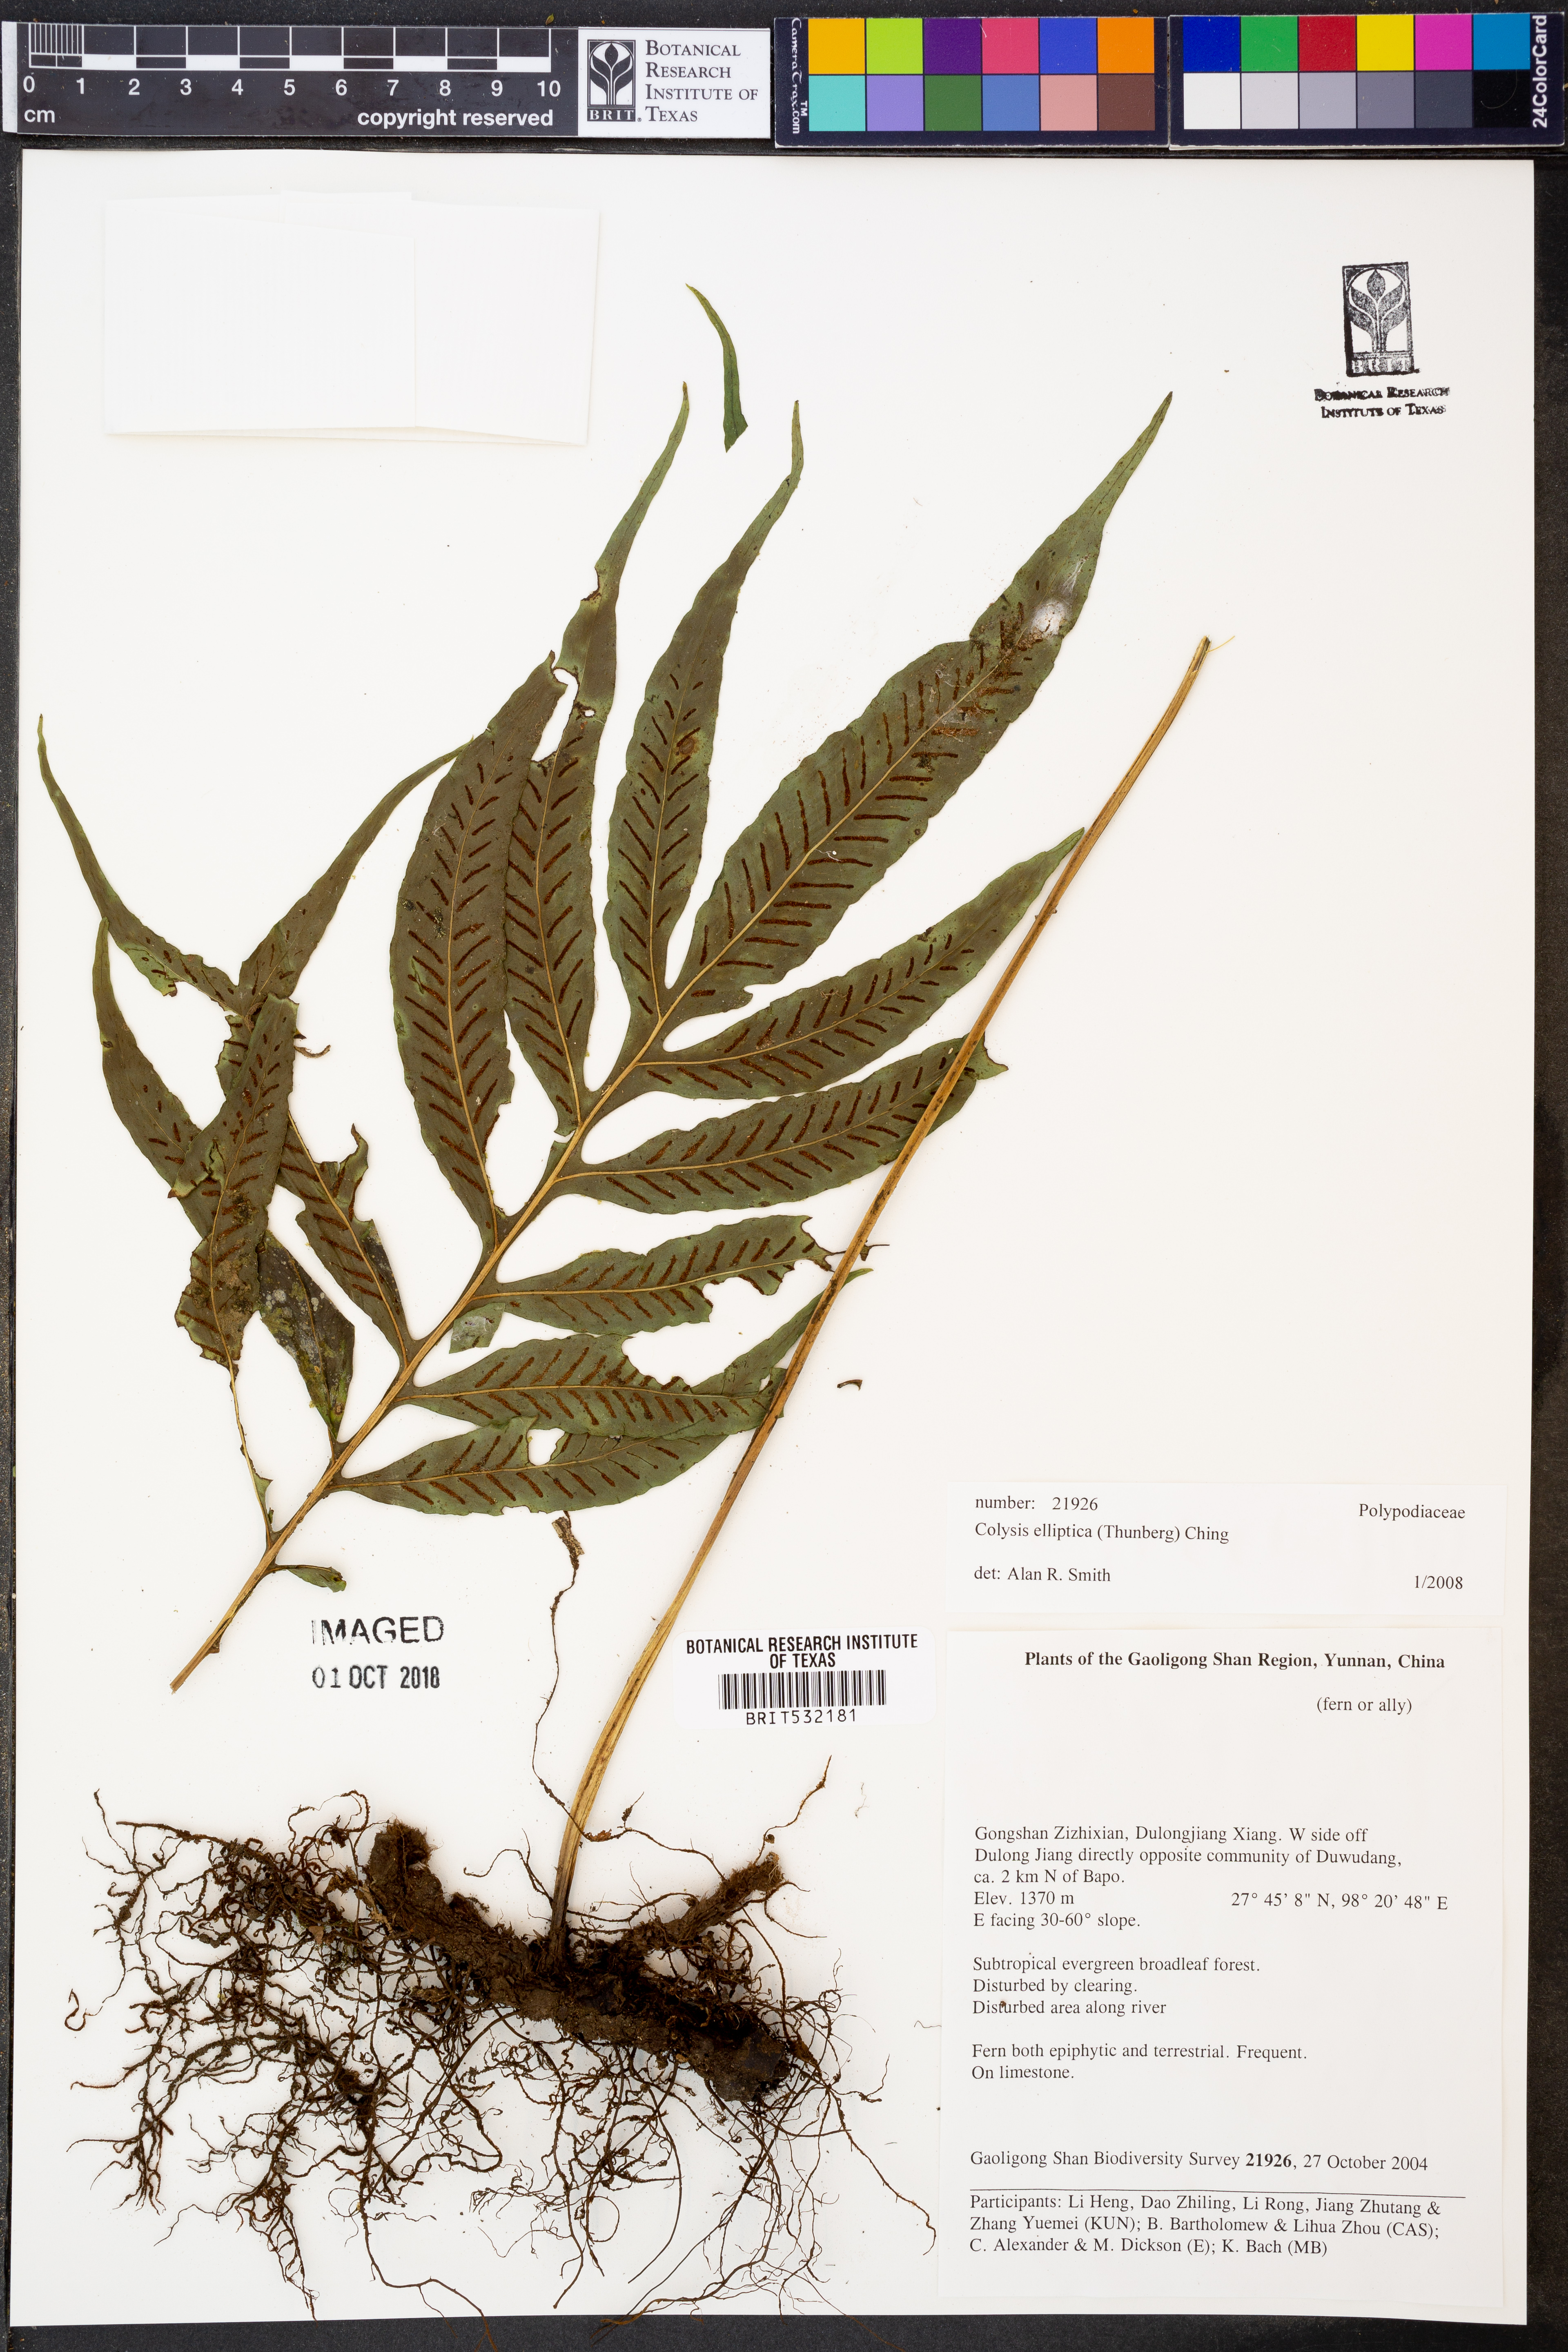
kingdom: Plantae
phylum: Tracheophyta
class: Polypodiopsida
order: Polypodiales
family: Polypodiaceae
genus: Leptochilus
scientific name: Leptochilus ellipticus
